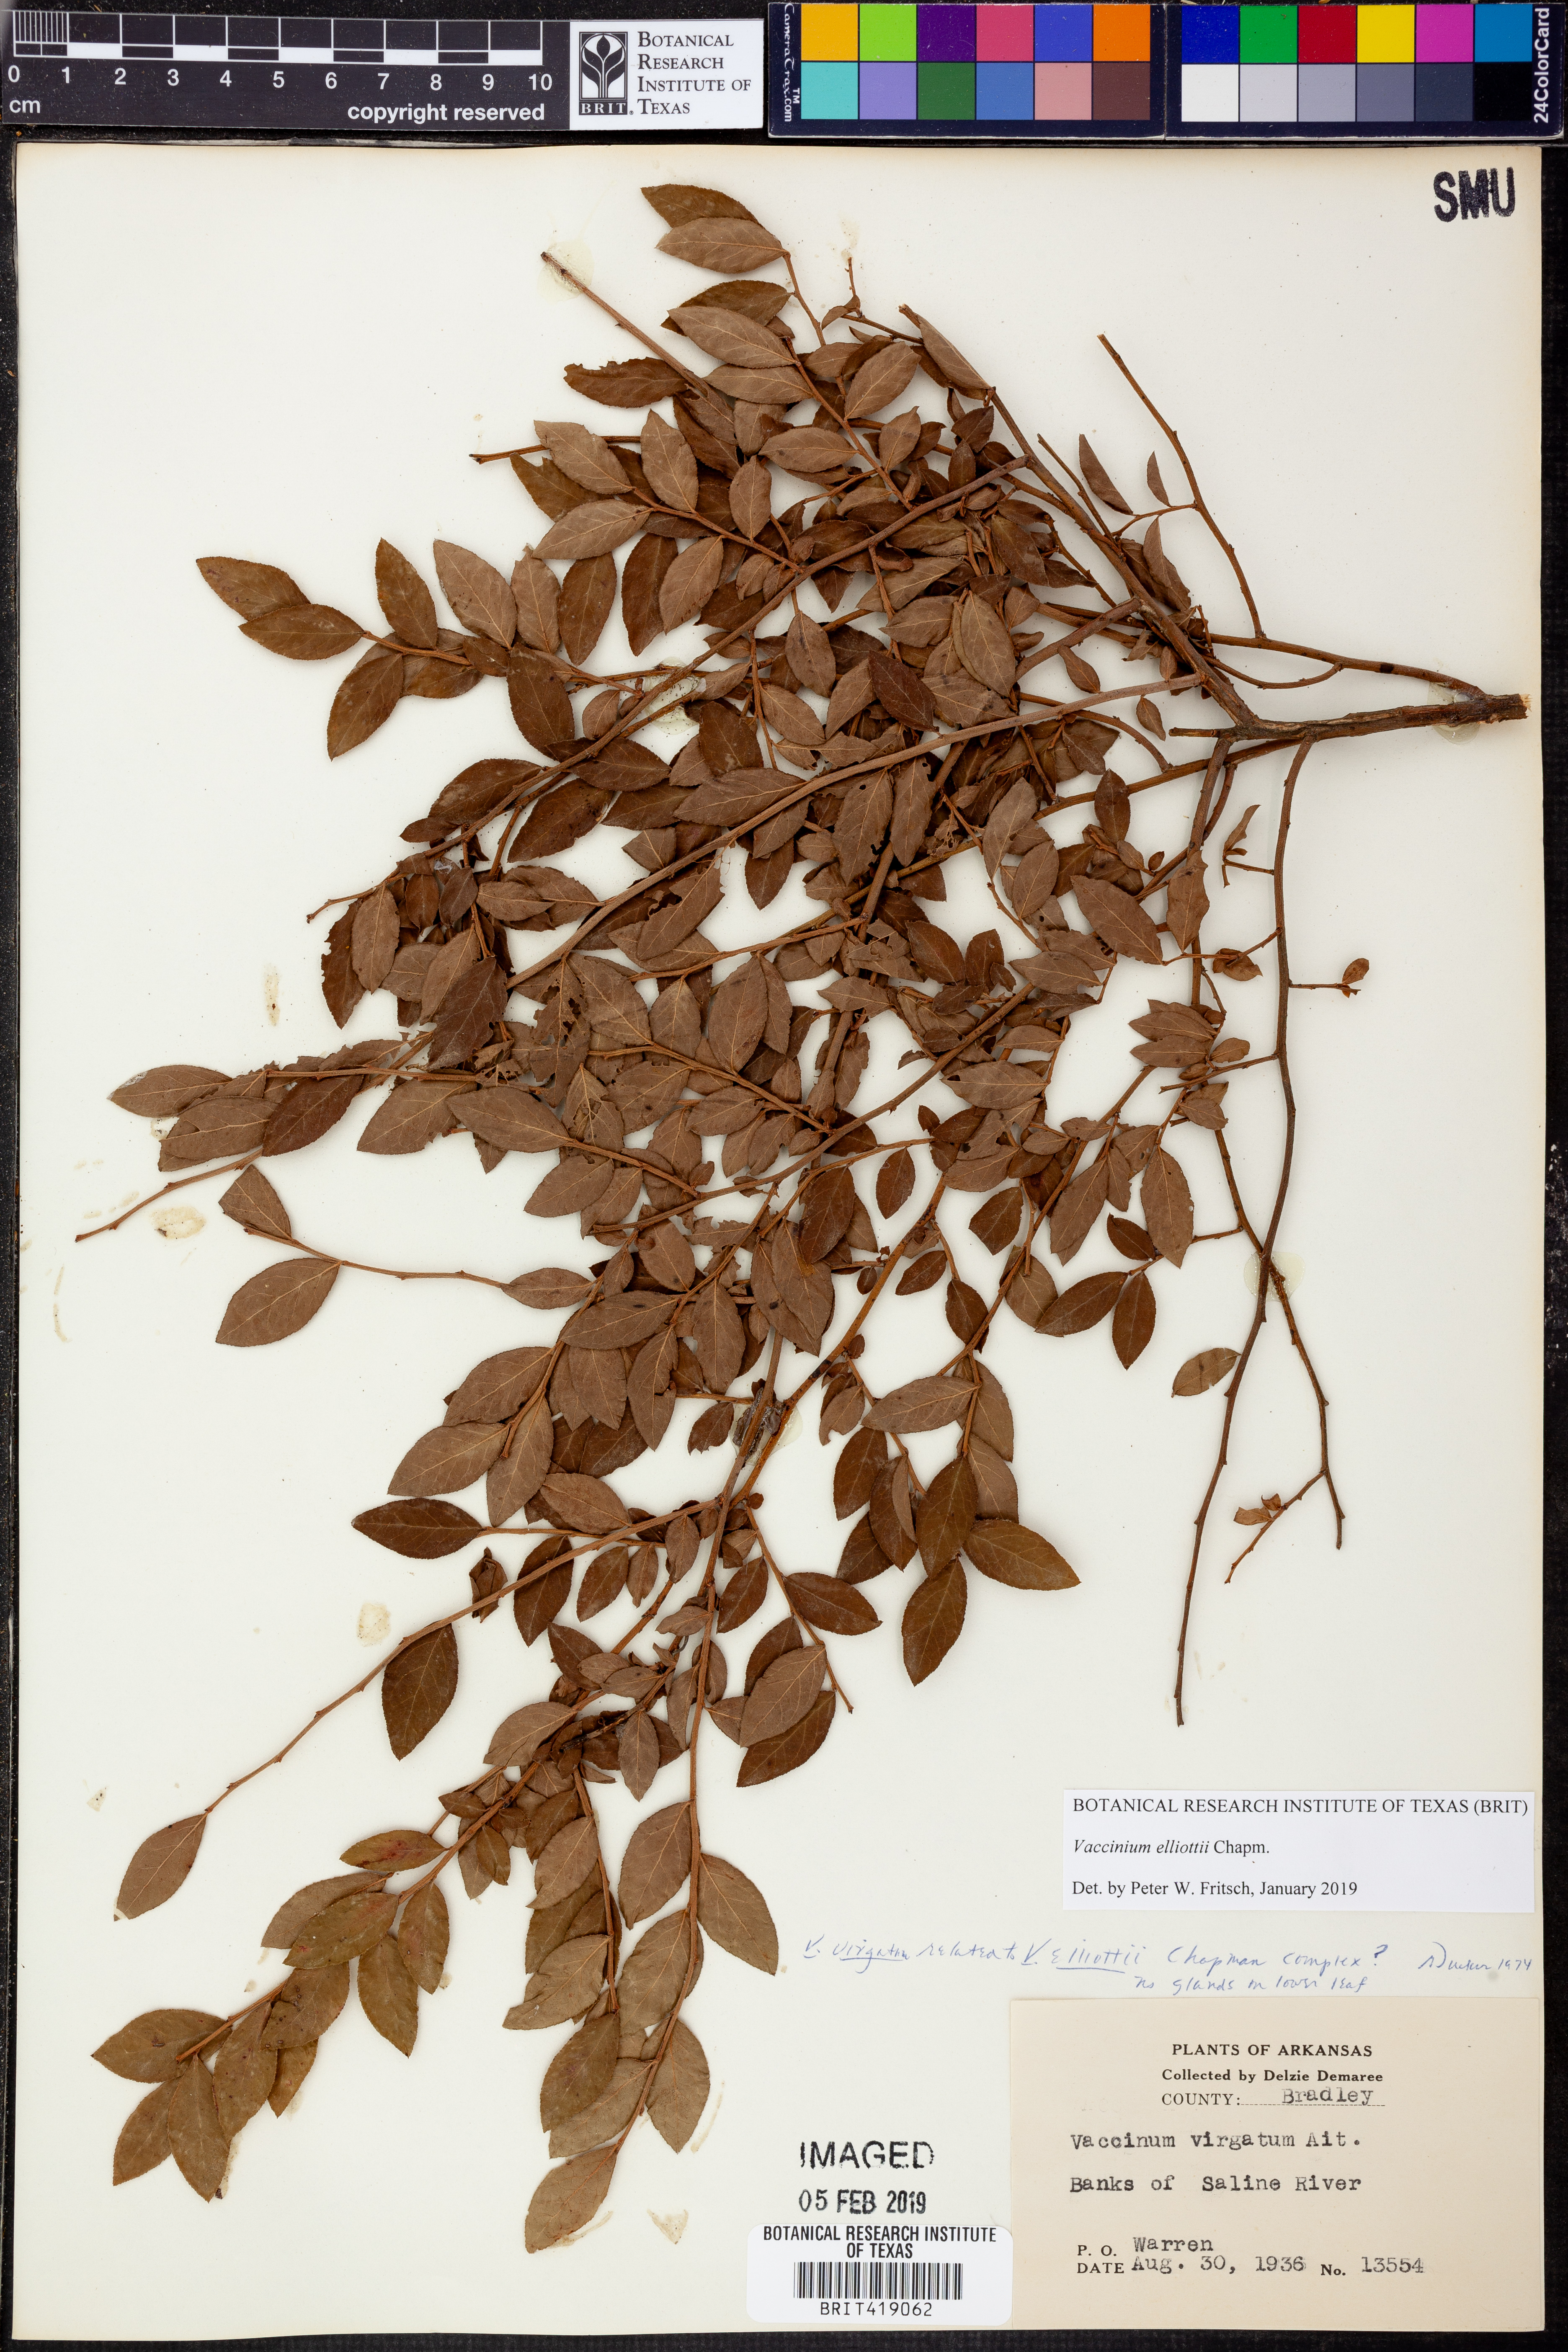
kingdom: Plantae
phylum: Tracheophyta
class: Magnoliopsida
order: Ericales
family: Ericaceae
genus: Vaccinium
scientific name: Vaccinium corymbosum
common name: Blueberry
